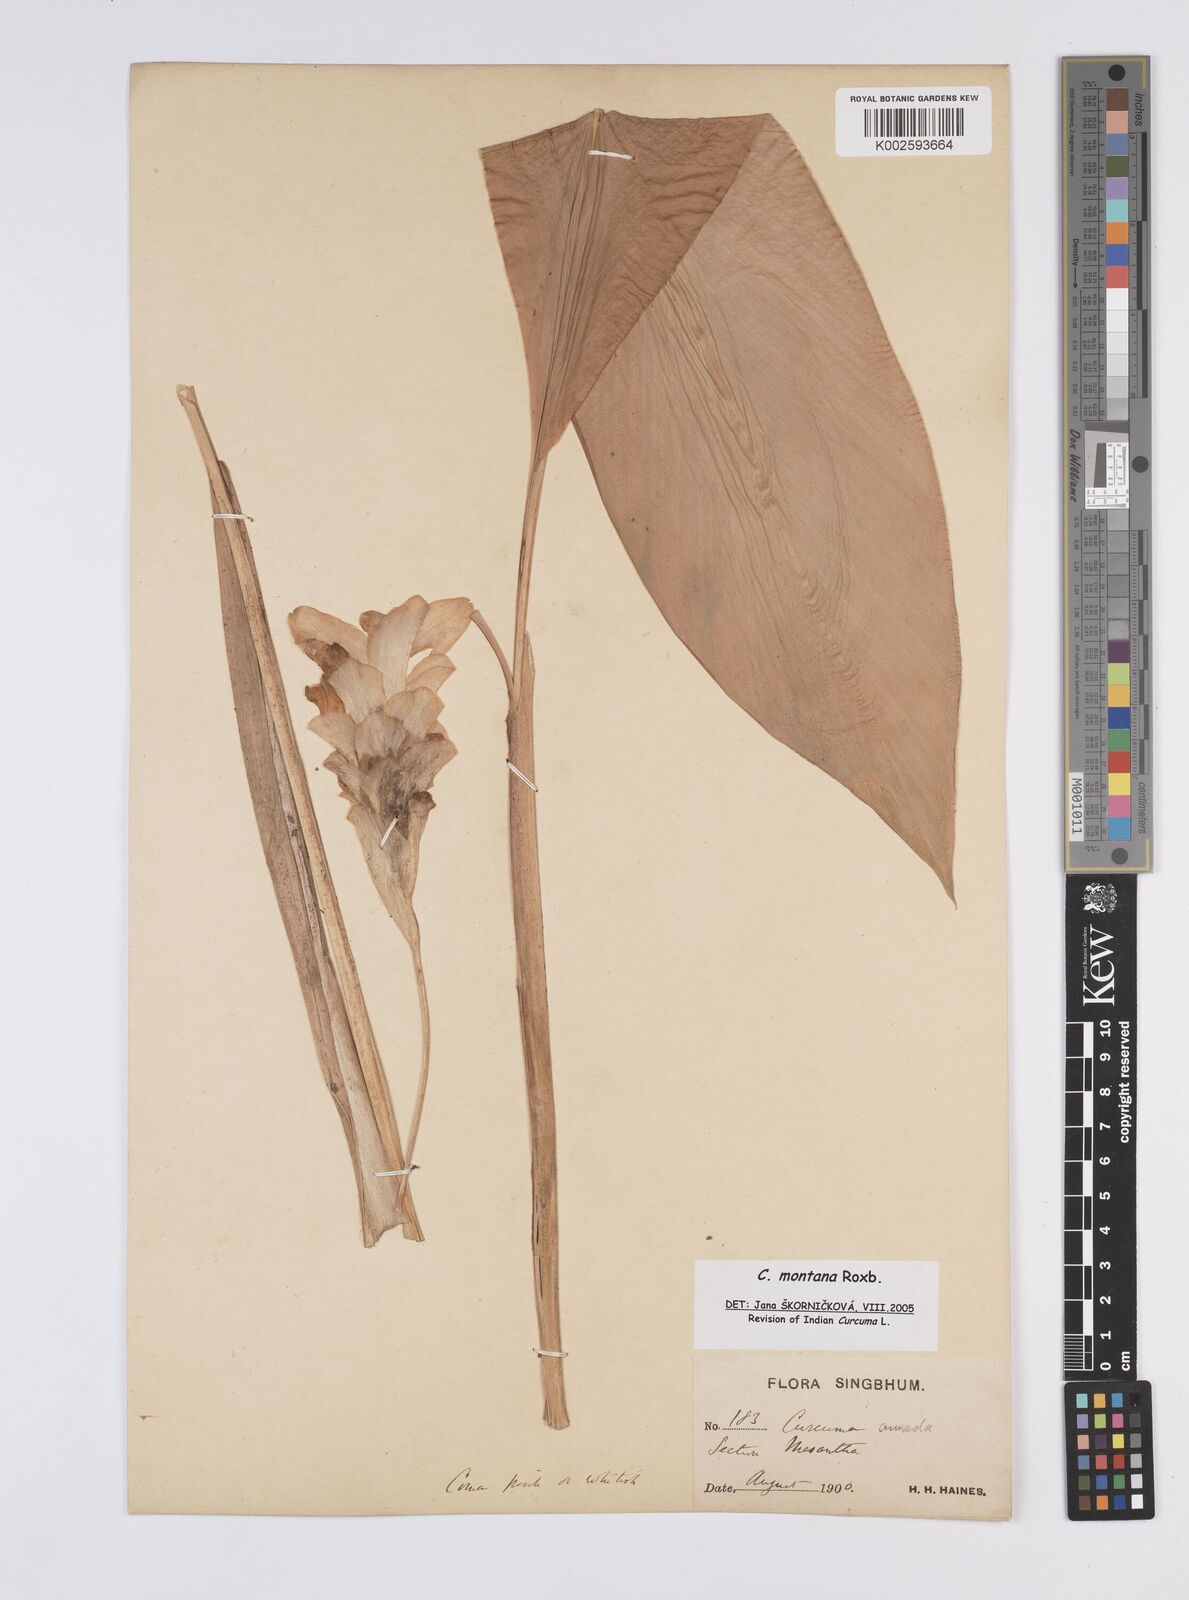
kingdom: Plantae
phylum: Tracheophyta
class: Liliopsida
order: Zingiberales
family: Zingiberaceae
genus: Curcuma
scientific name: Curcuma montana
